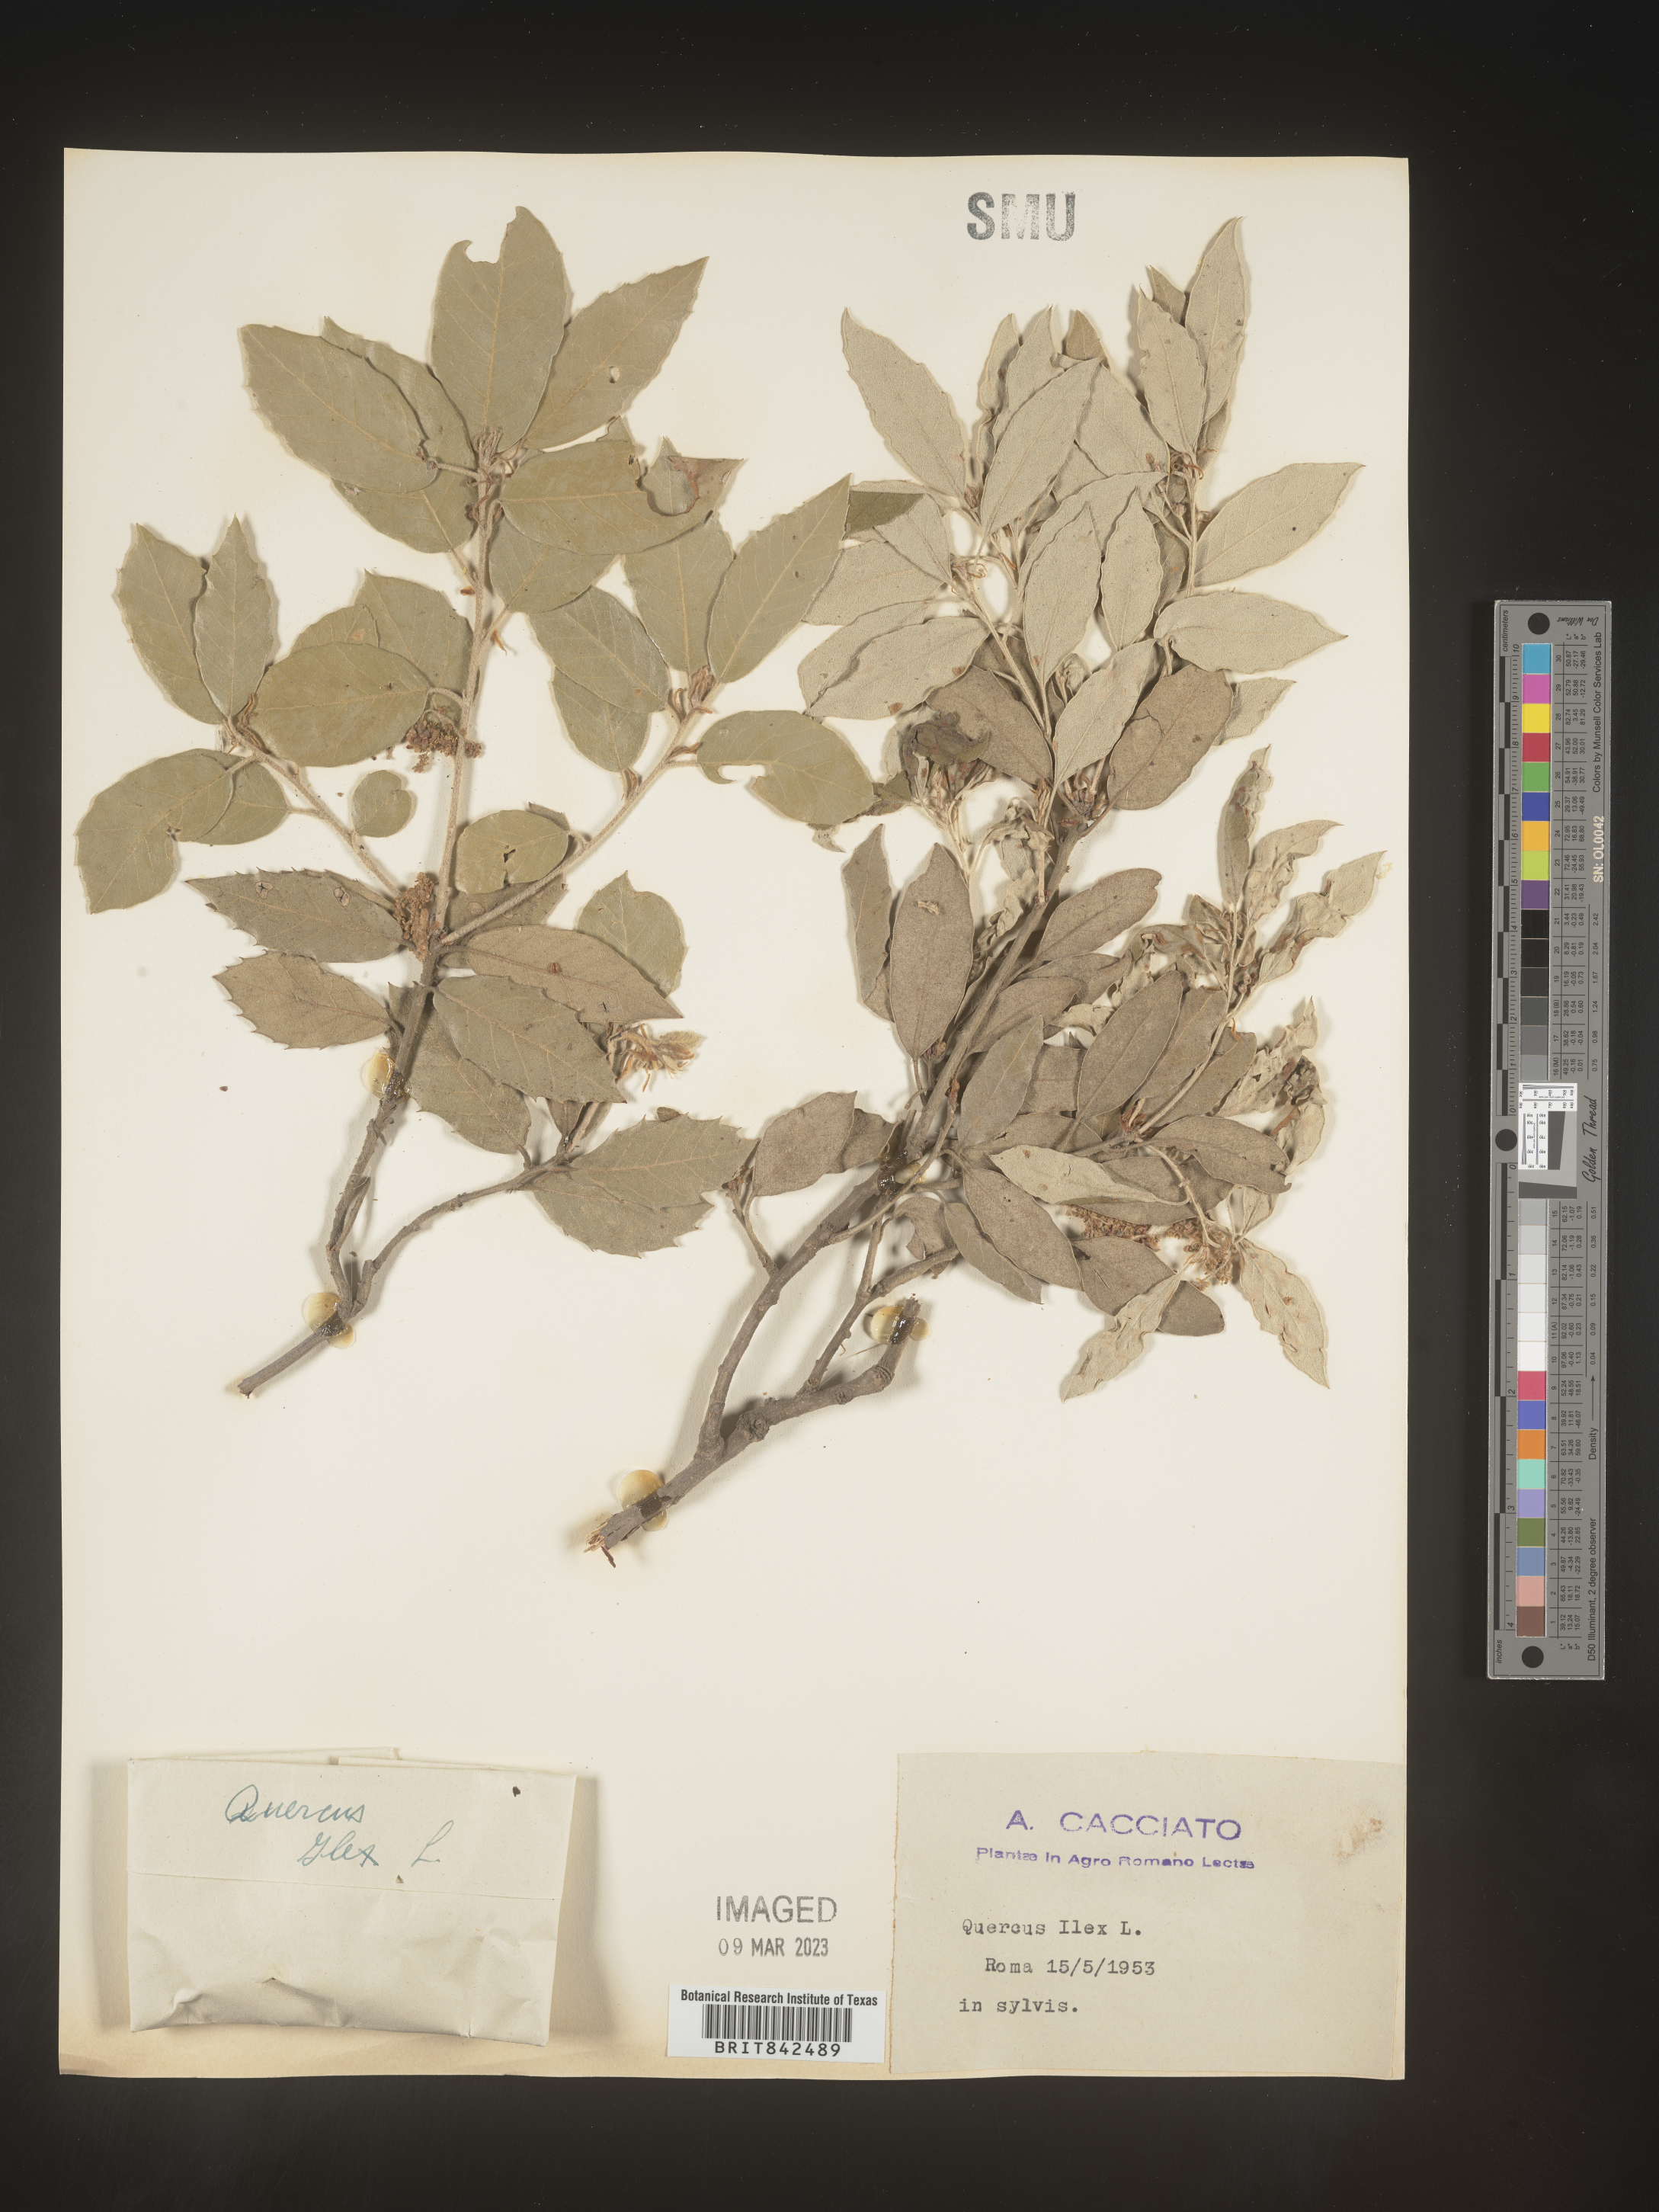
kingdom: Plantae
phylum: Tracheophyta
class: Magnoliopsida
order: Fagales
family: Fagaceae
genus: Quercus
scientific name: Quercus
